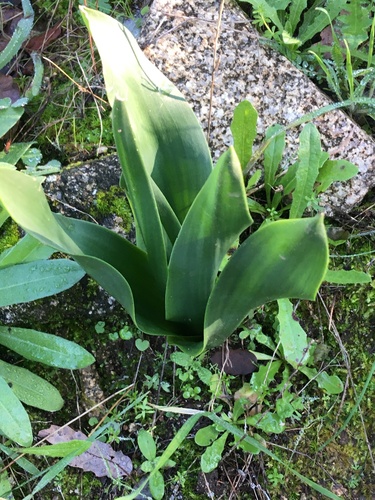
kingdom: Plantae
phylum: Tracheophyta
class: Liliopsida
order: Asparagales
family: Asparagaceae
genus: Drimia
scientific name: Drimia maritima
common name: Maritime squill
